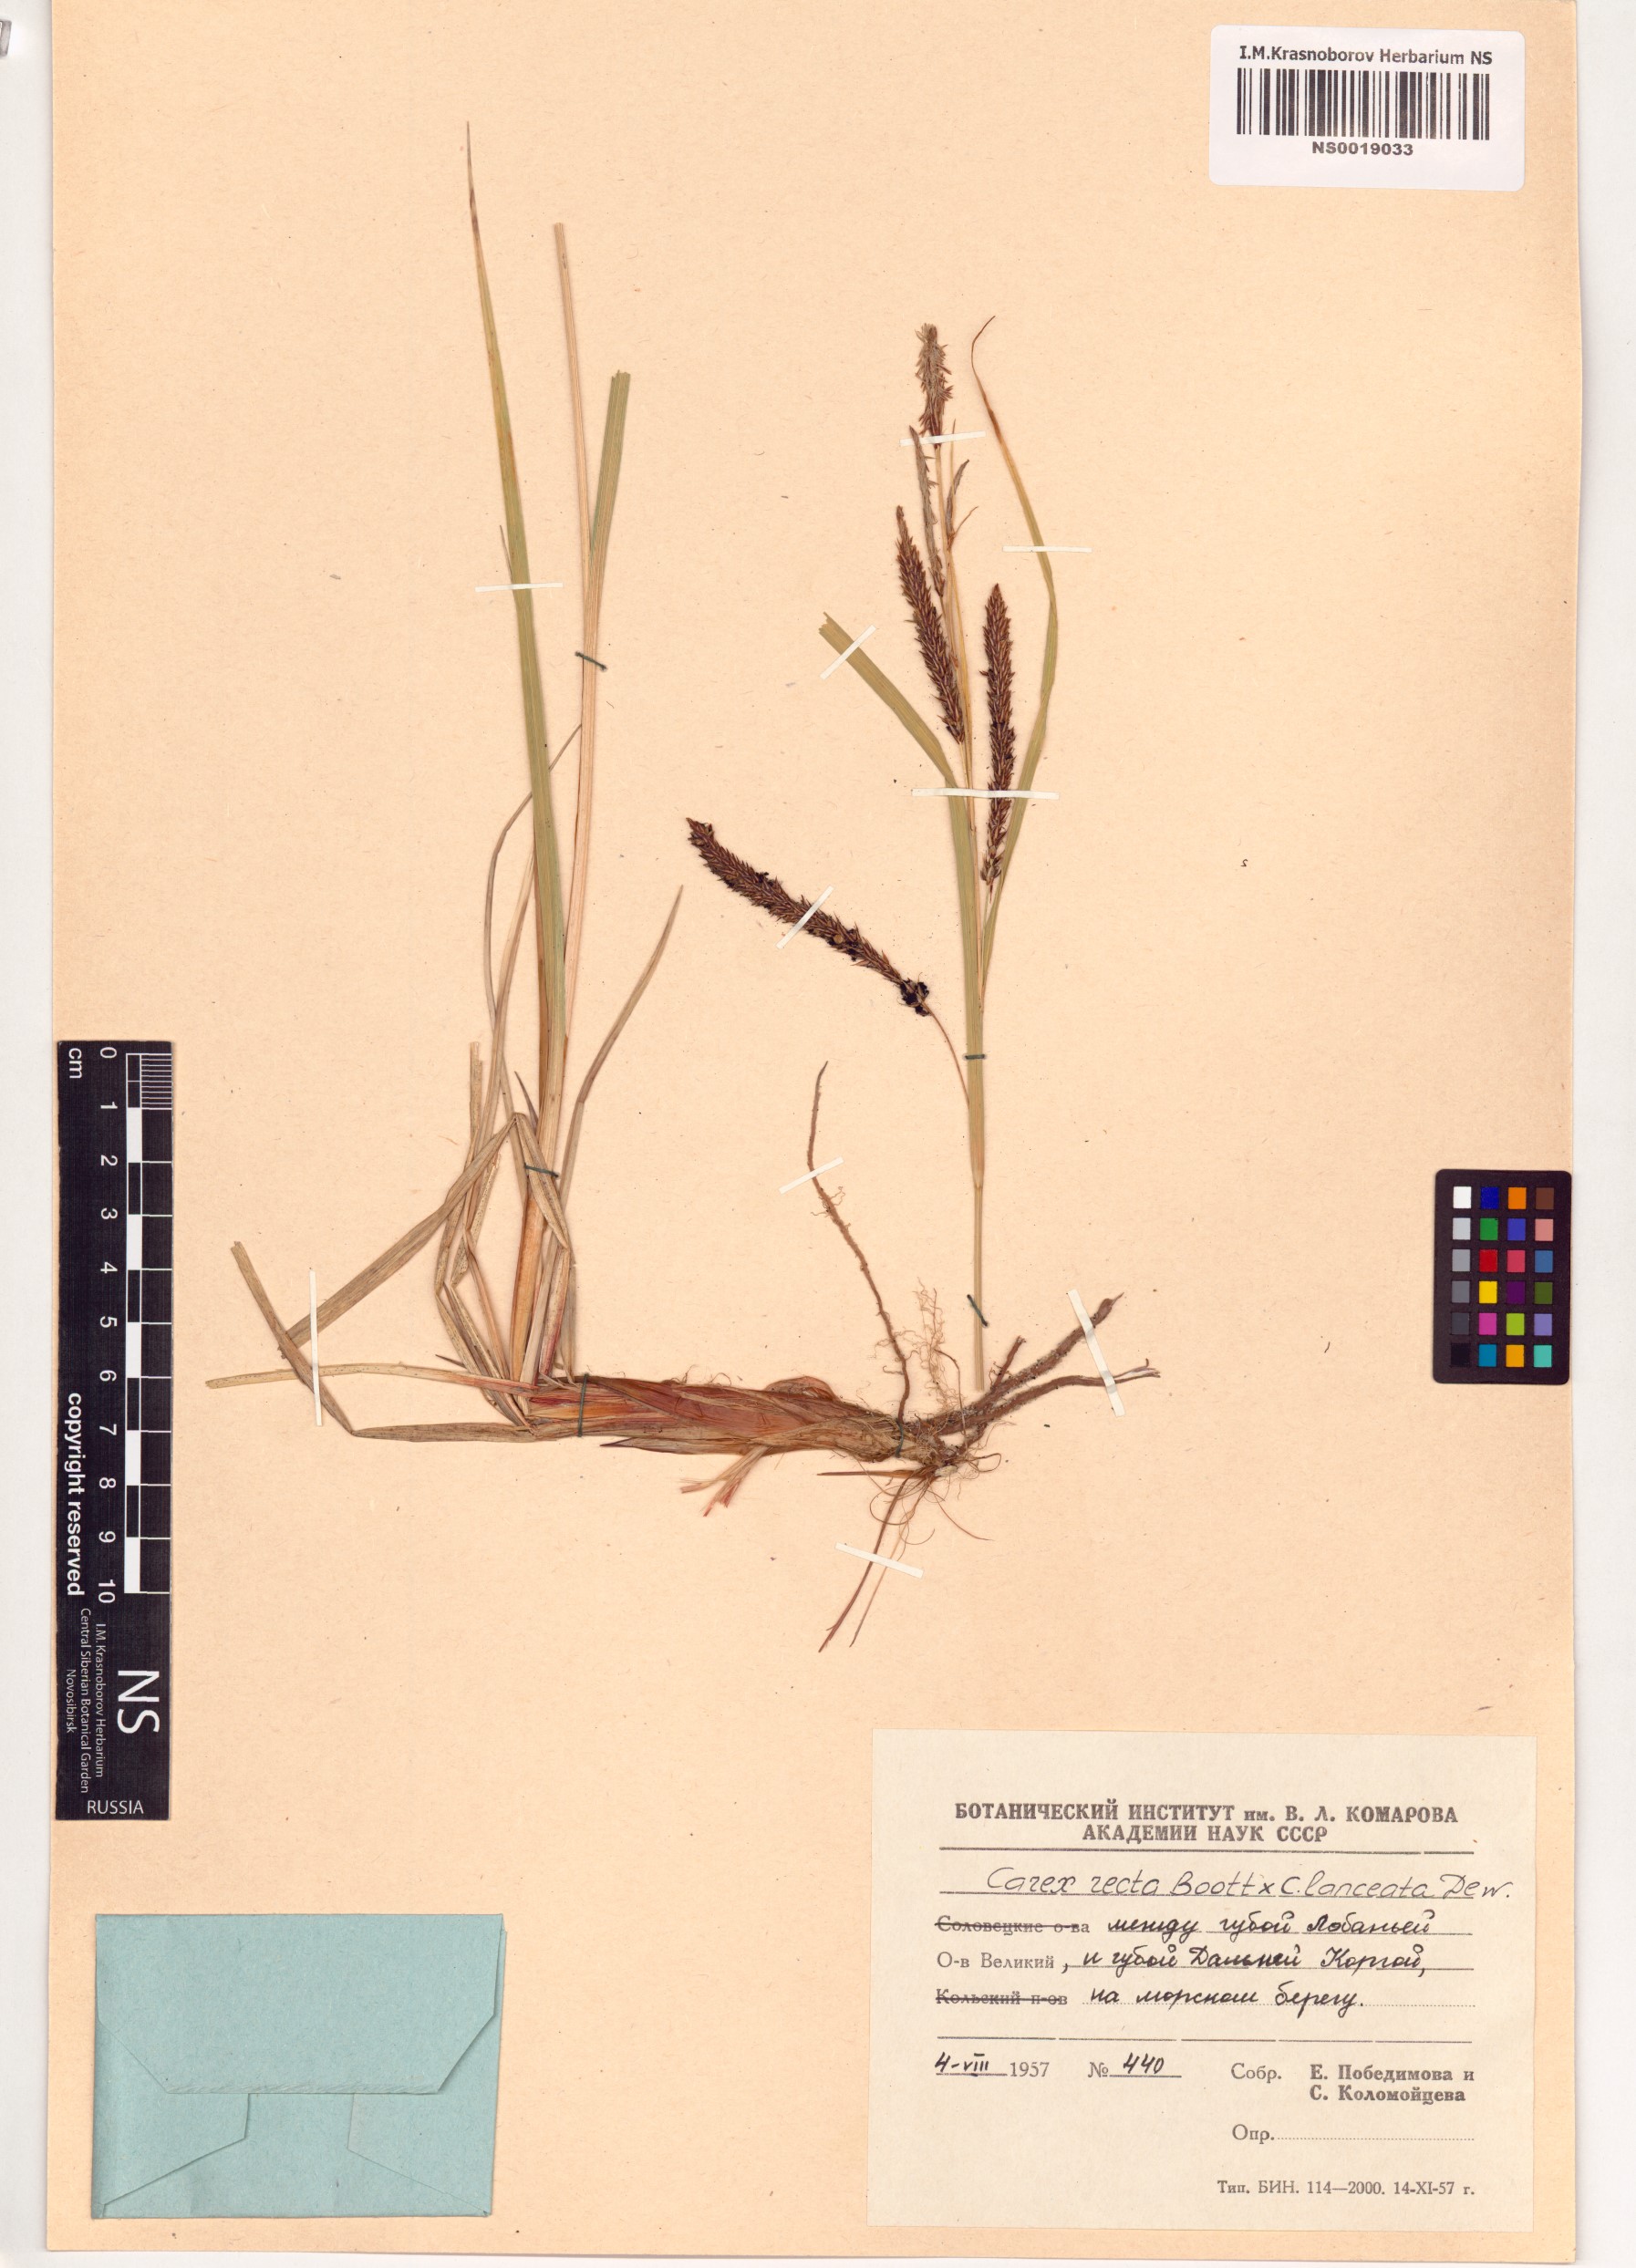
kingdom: Plantae
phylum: Tracheophyta
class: Liliopsida
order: Poales
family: Cyperaceae
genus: Carex
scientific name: Carex recta
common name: Estuarine sedge
